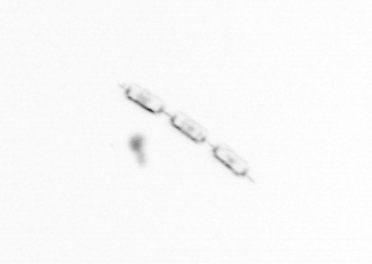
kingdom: Chromista
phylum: Ochrophyta
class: Bacillariophyceae
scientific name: Bacillariophyceae
